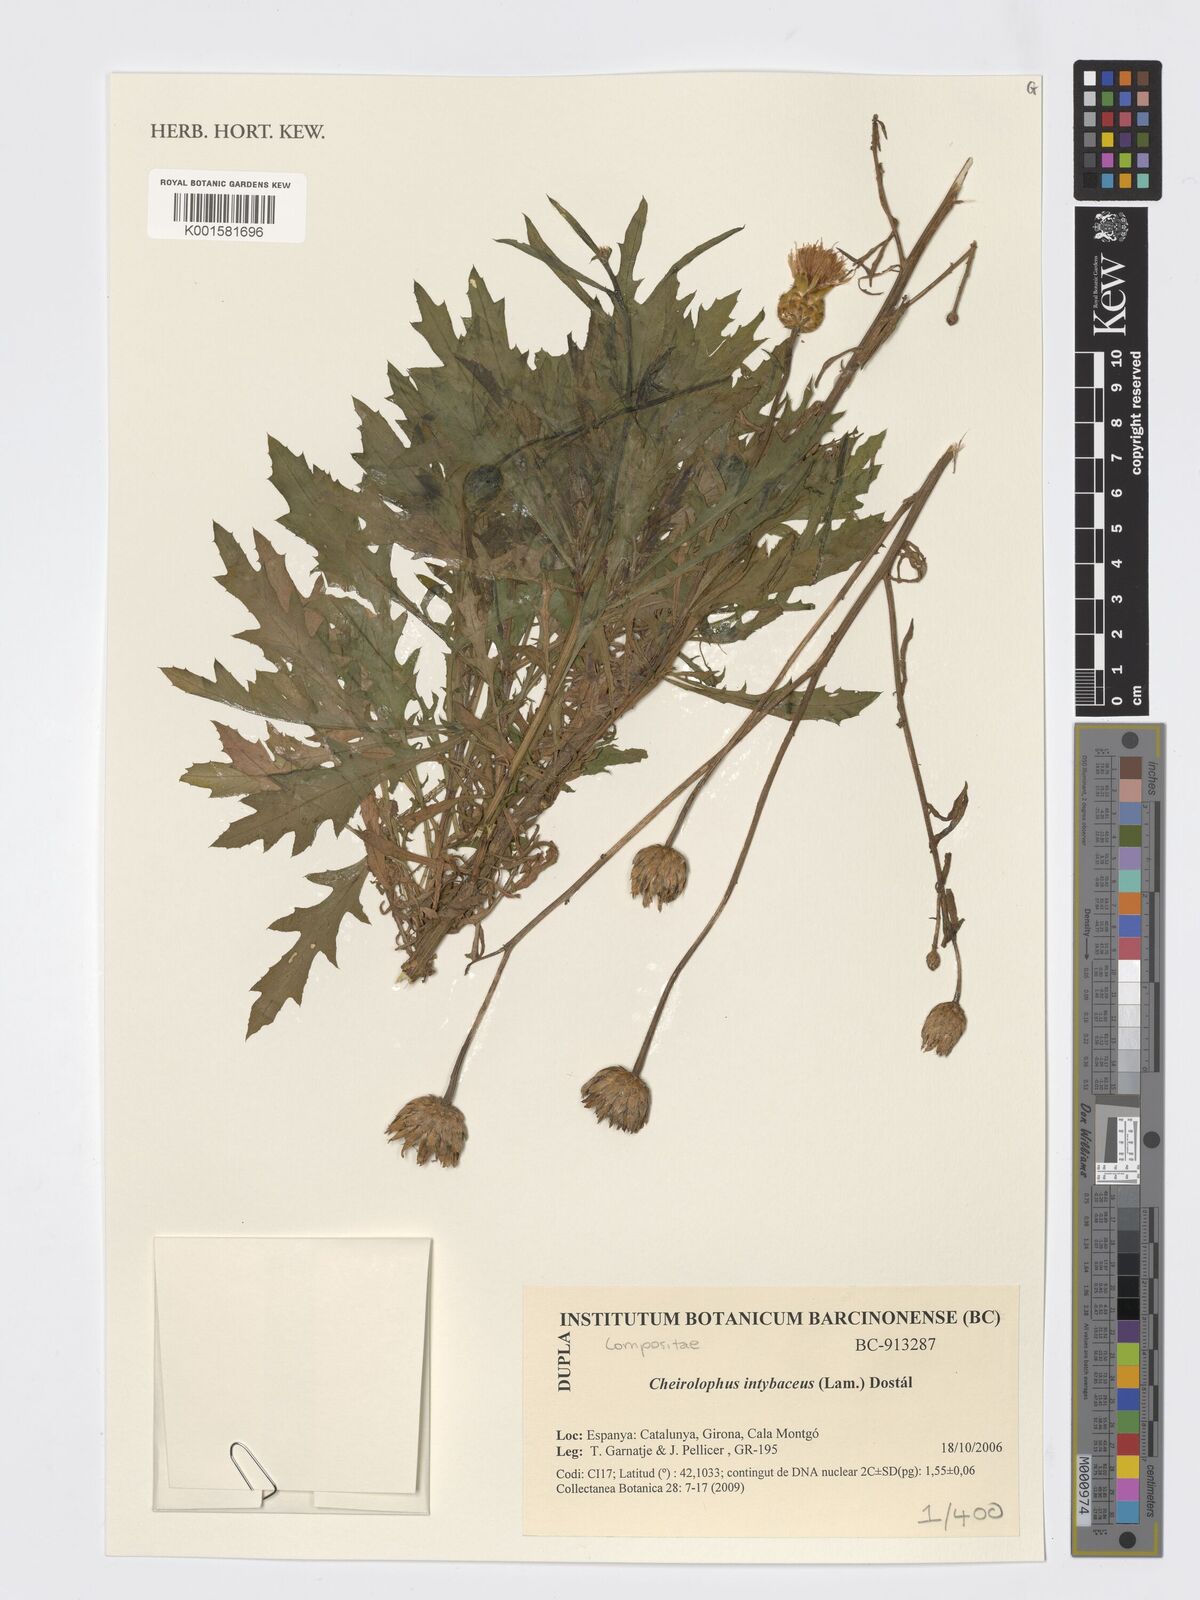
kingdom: Plantae
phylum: Tracheophyta
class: Magnoliopsida
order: Asterales
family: Asteraceae
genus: Cheirolophus
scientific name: Cheirolophus intybaceus
